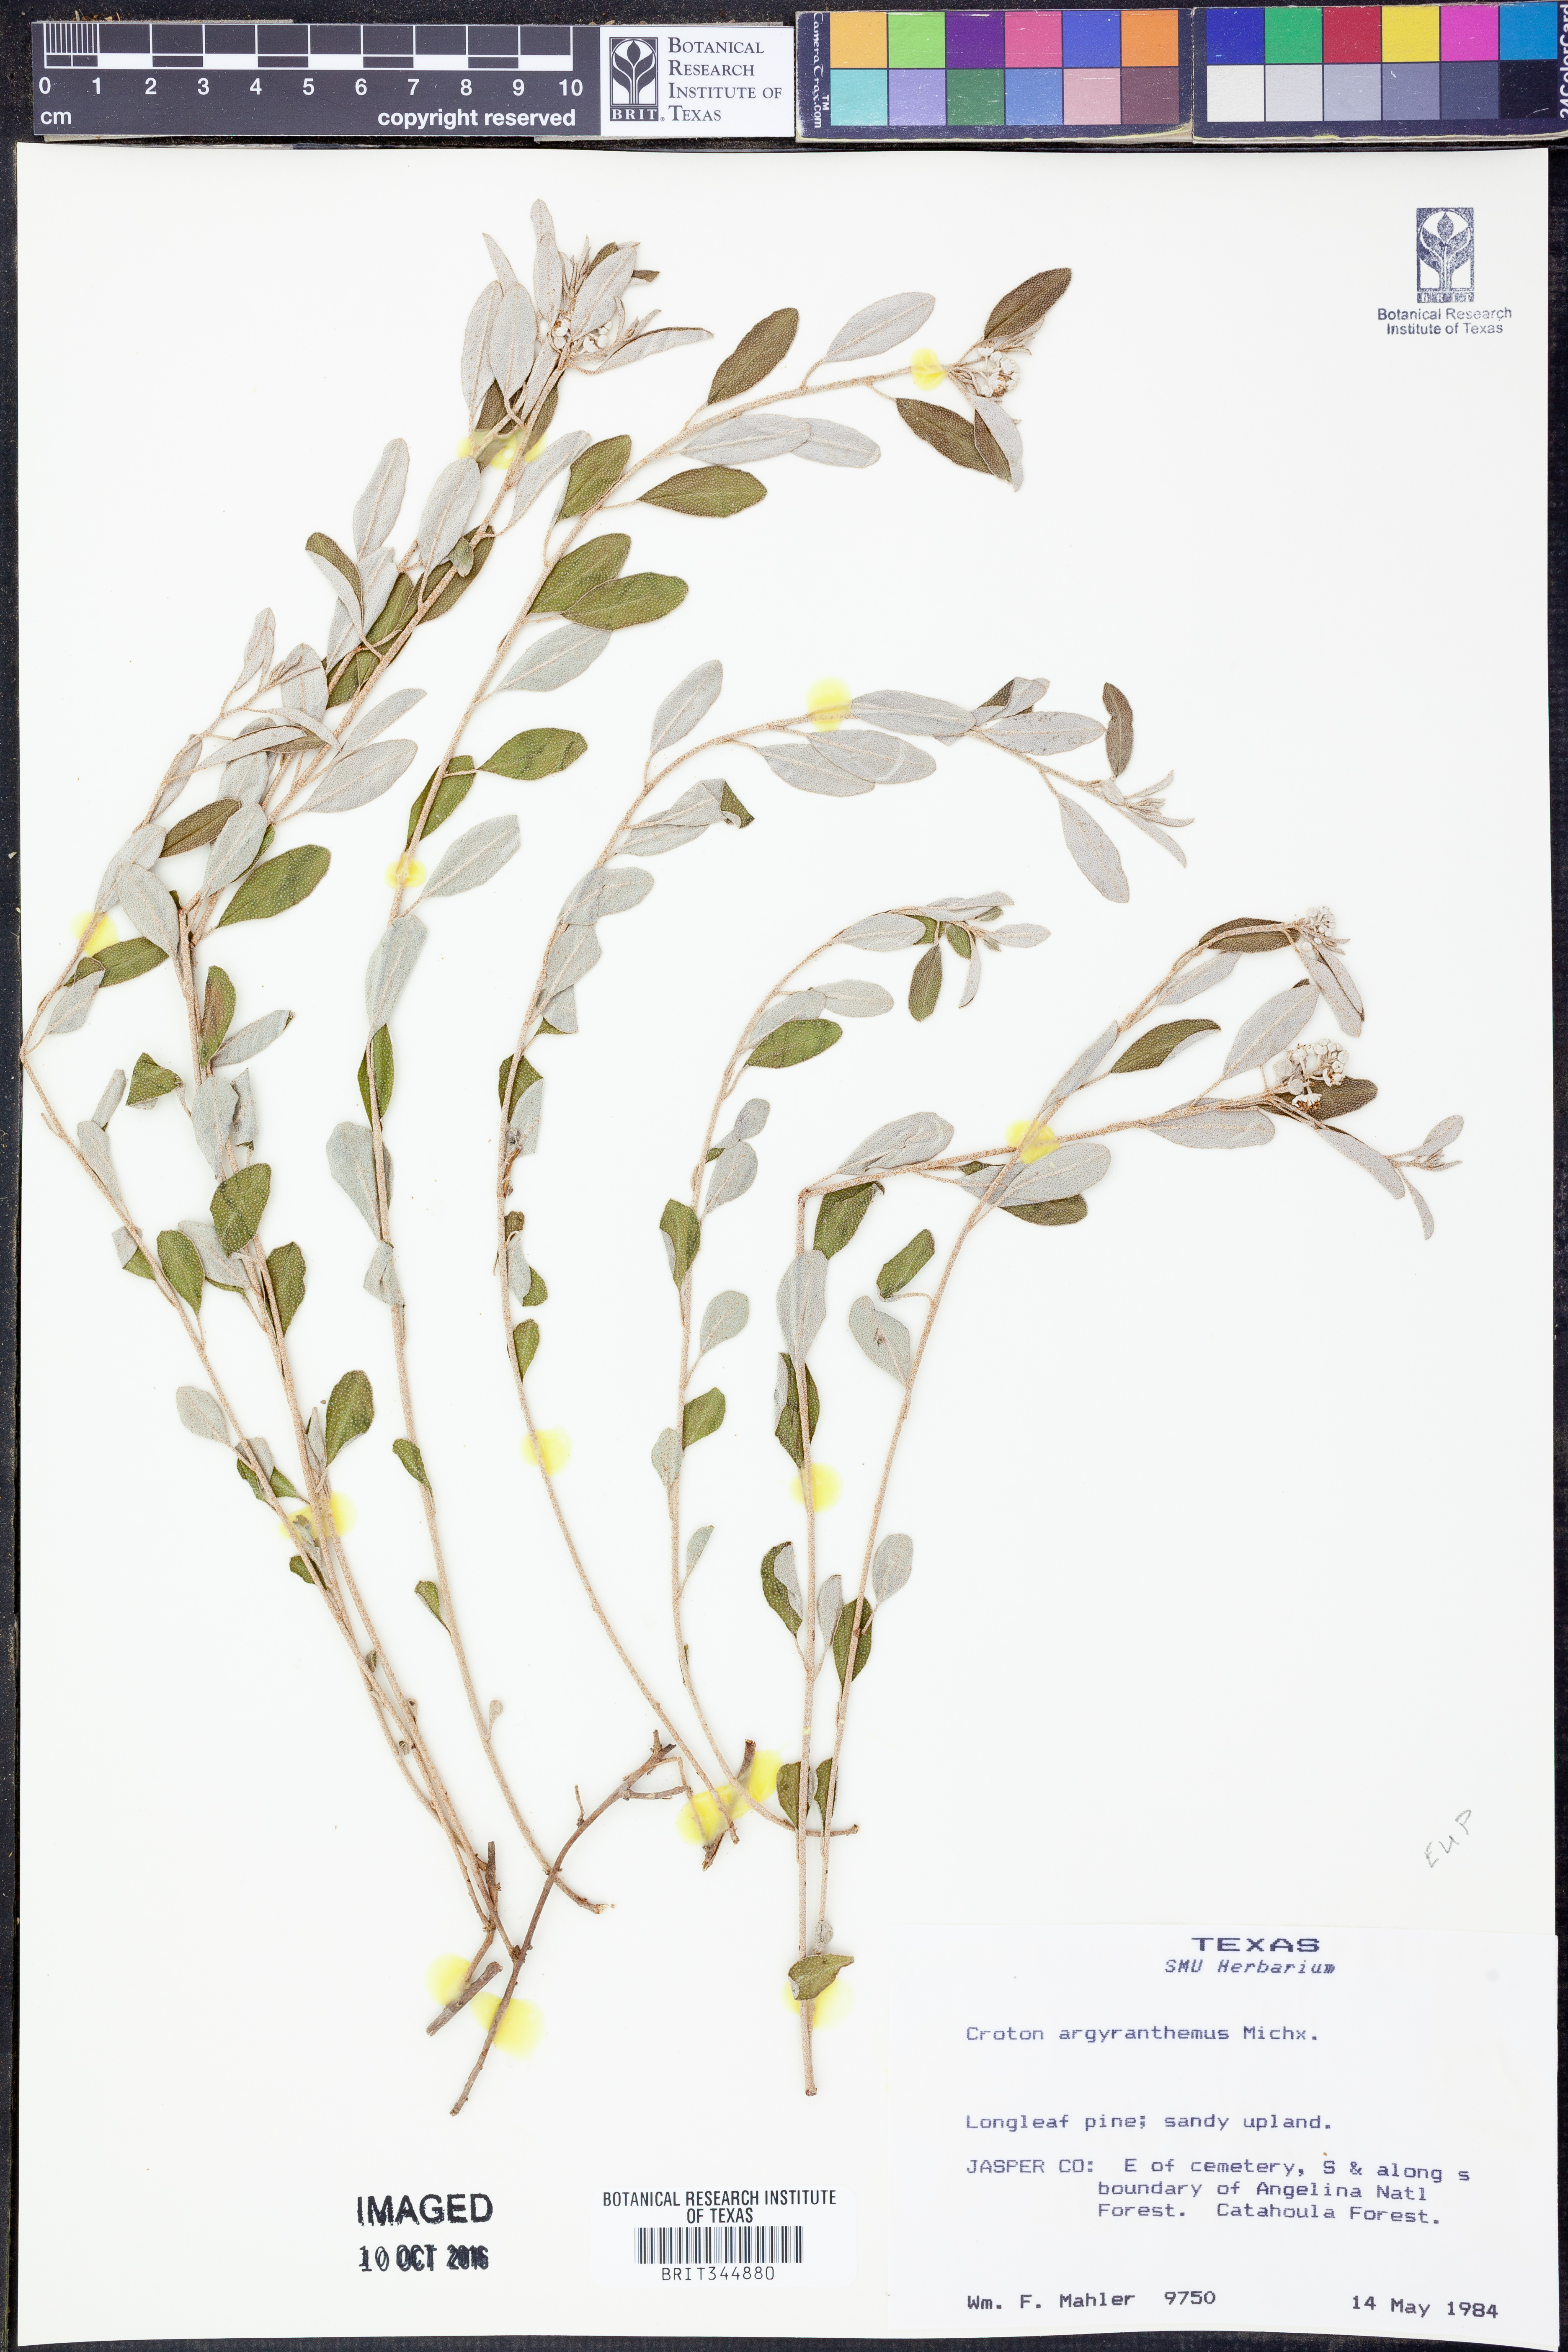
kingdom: Plantae
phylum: Tracheophyta
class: Magnoliopsida
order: Malpighiales
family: Euphorbiaceae
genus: Croton
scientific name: Croton argyranthemus
